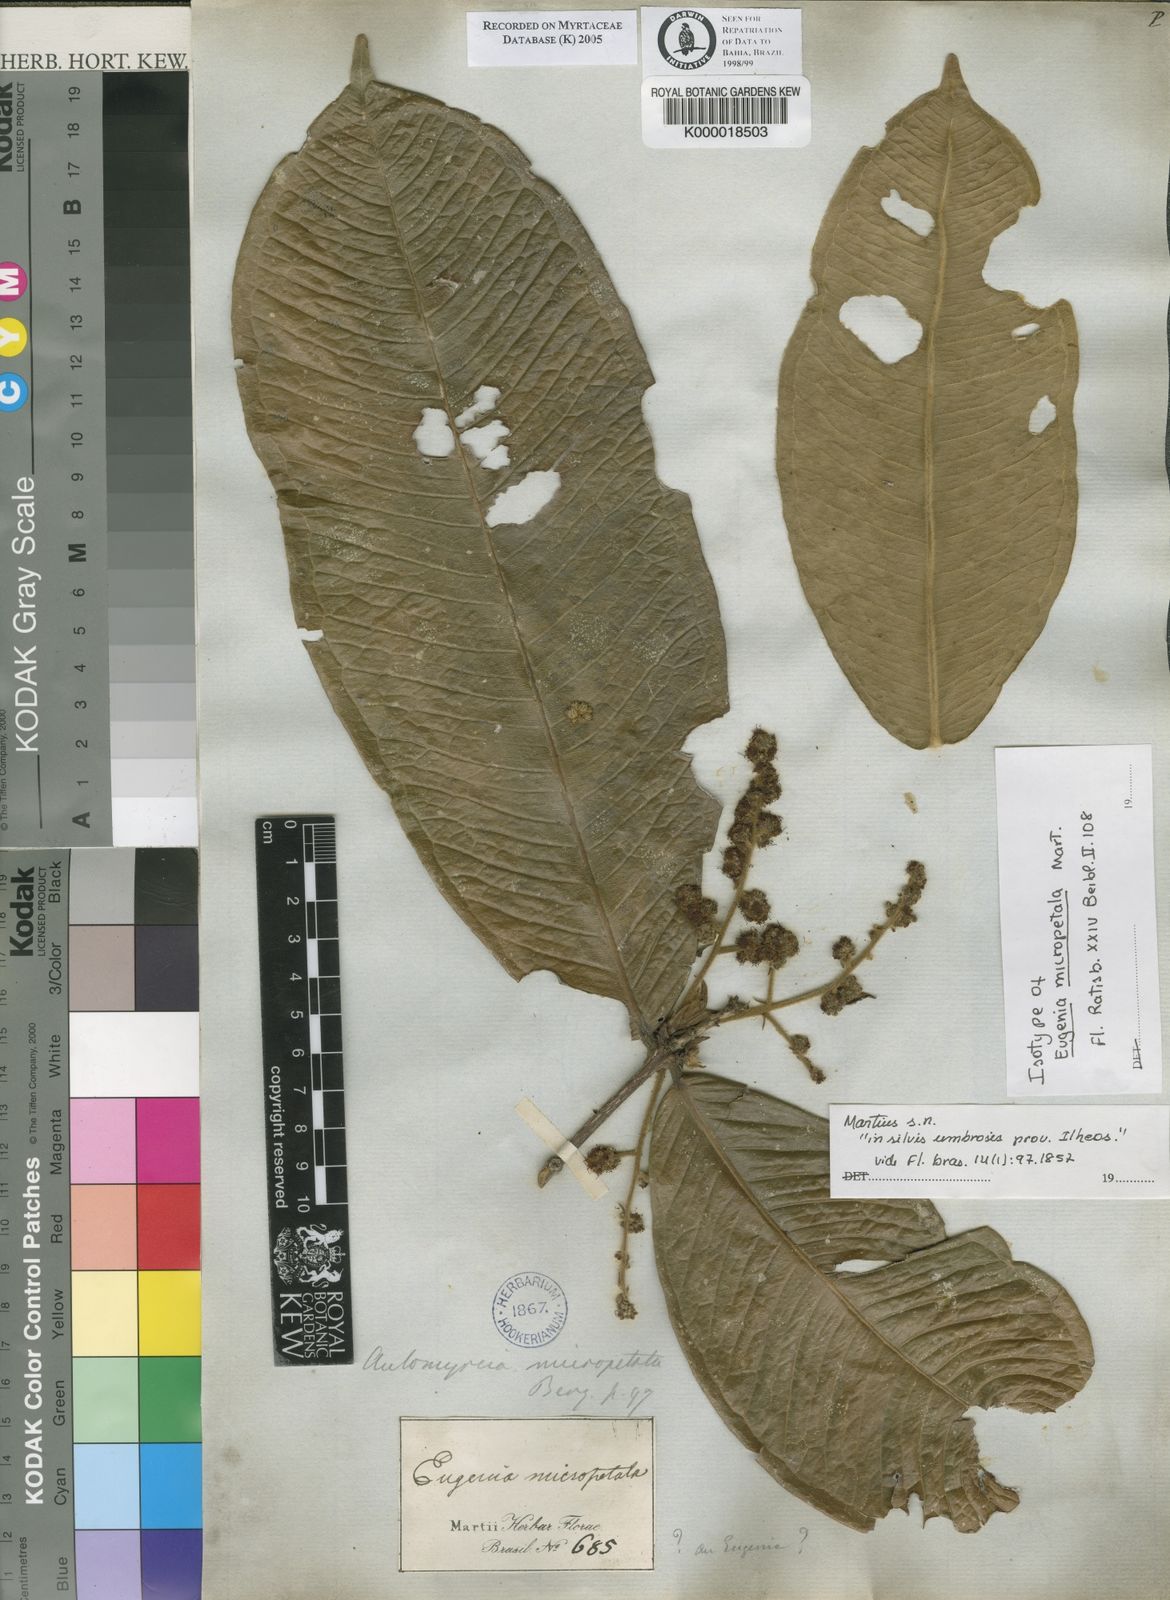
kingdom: Plantae
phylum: Tracheophyta
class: Magnoliopsida
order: Myrtales
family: Myrtaceae
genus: Myrcia
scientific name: Myrcia micropetala
